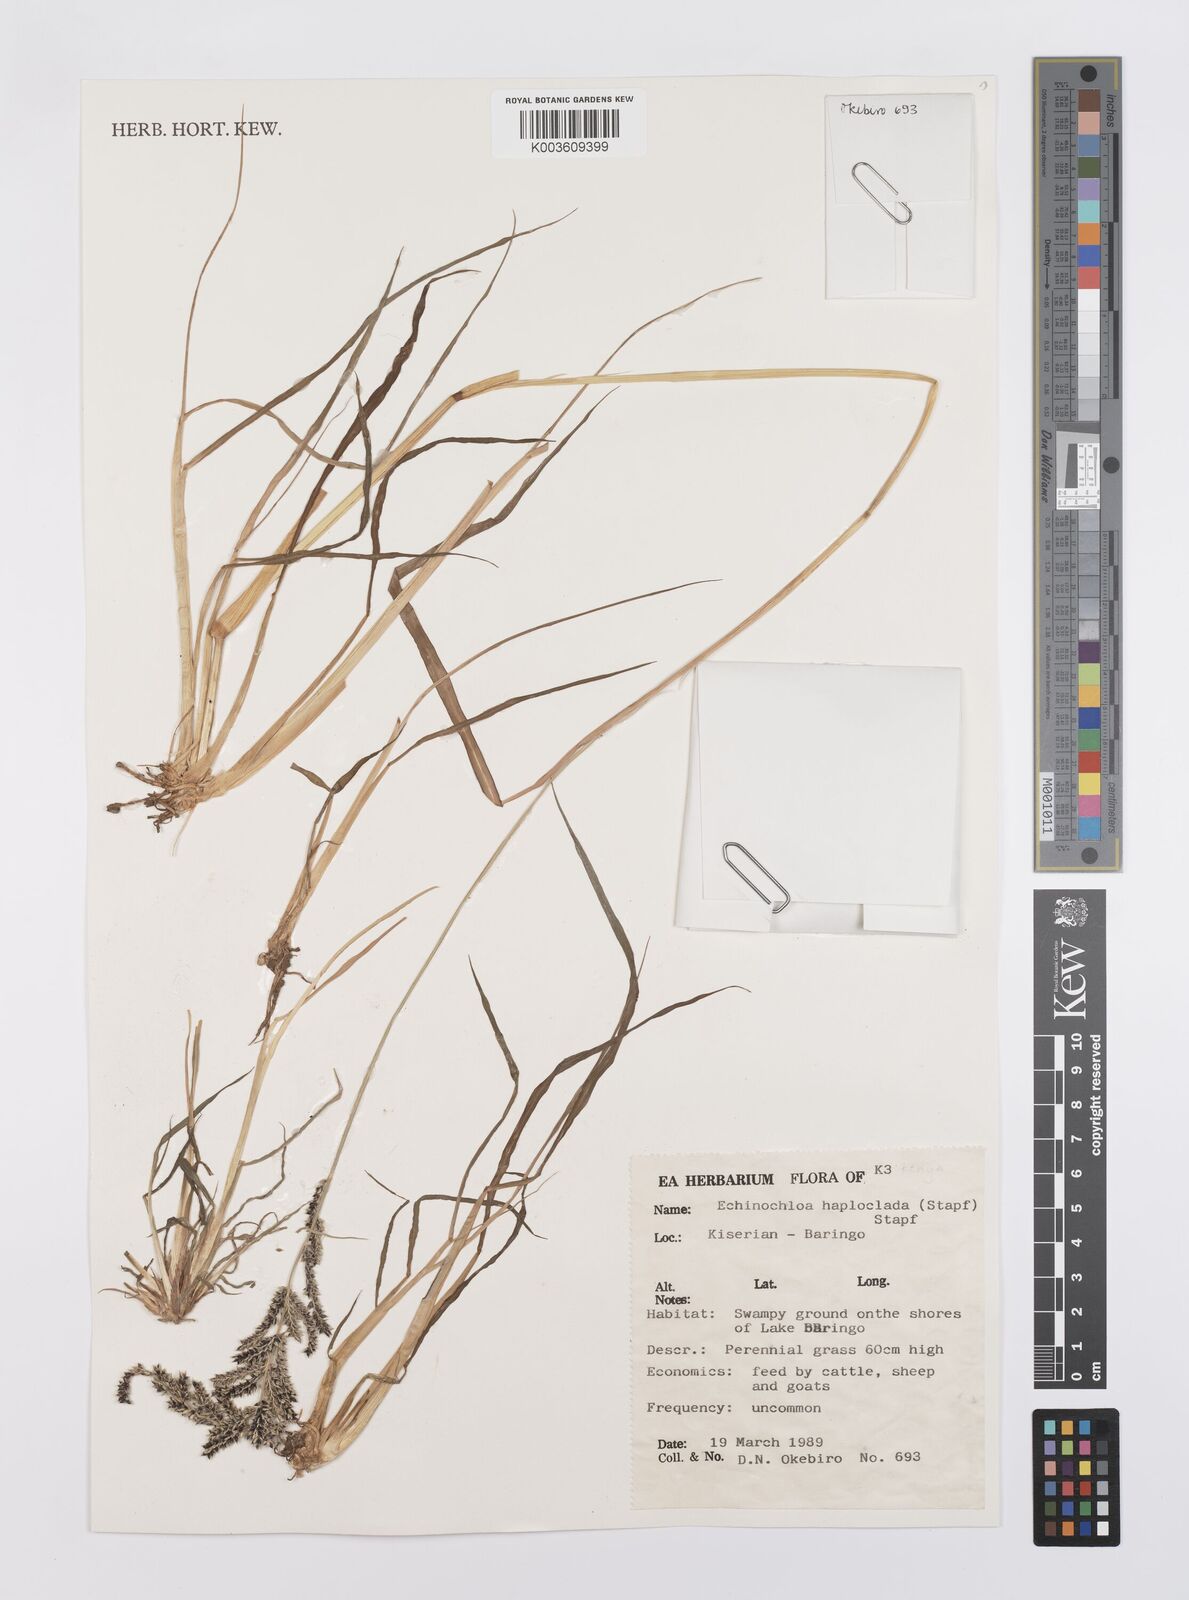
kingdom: Plantae
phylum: Tracheophyta
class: Liliopsida
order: Poales
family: Poaceae
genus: Echinochloa
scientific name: Echinochloa haploclada
